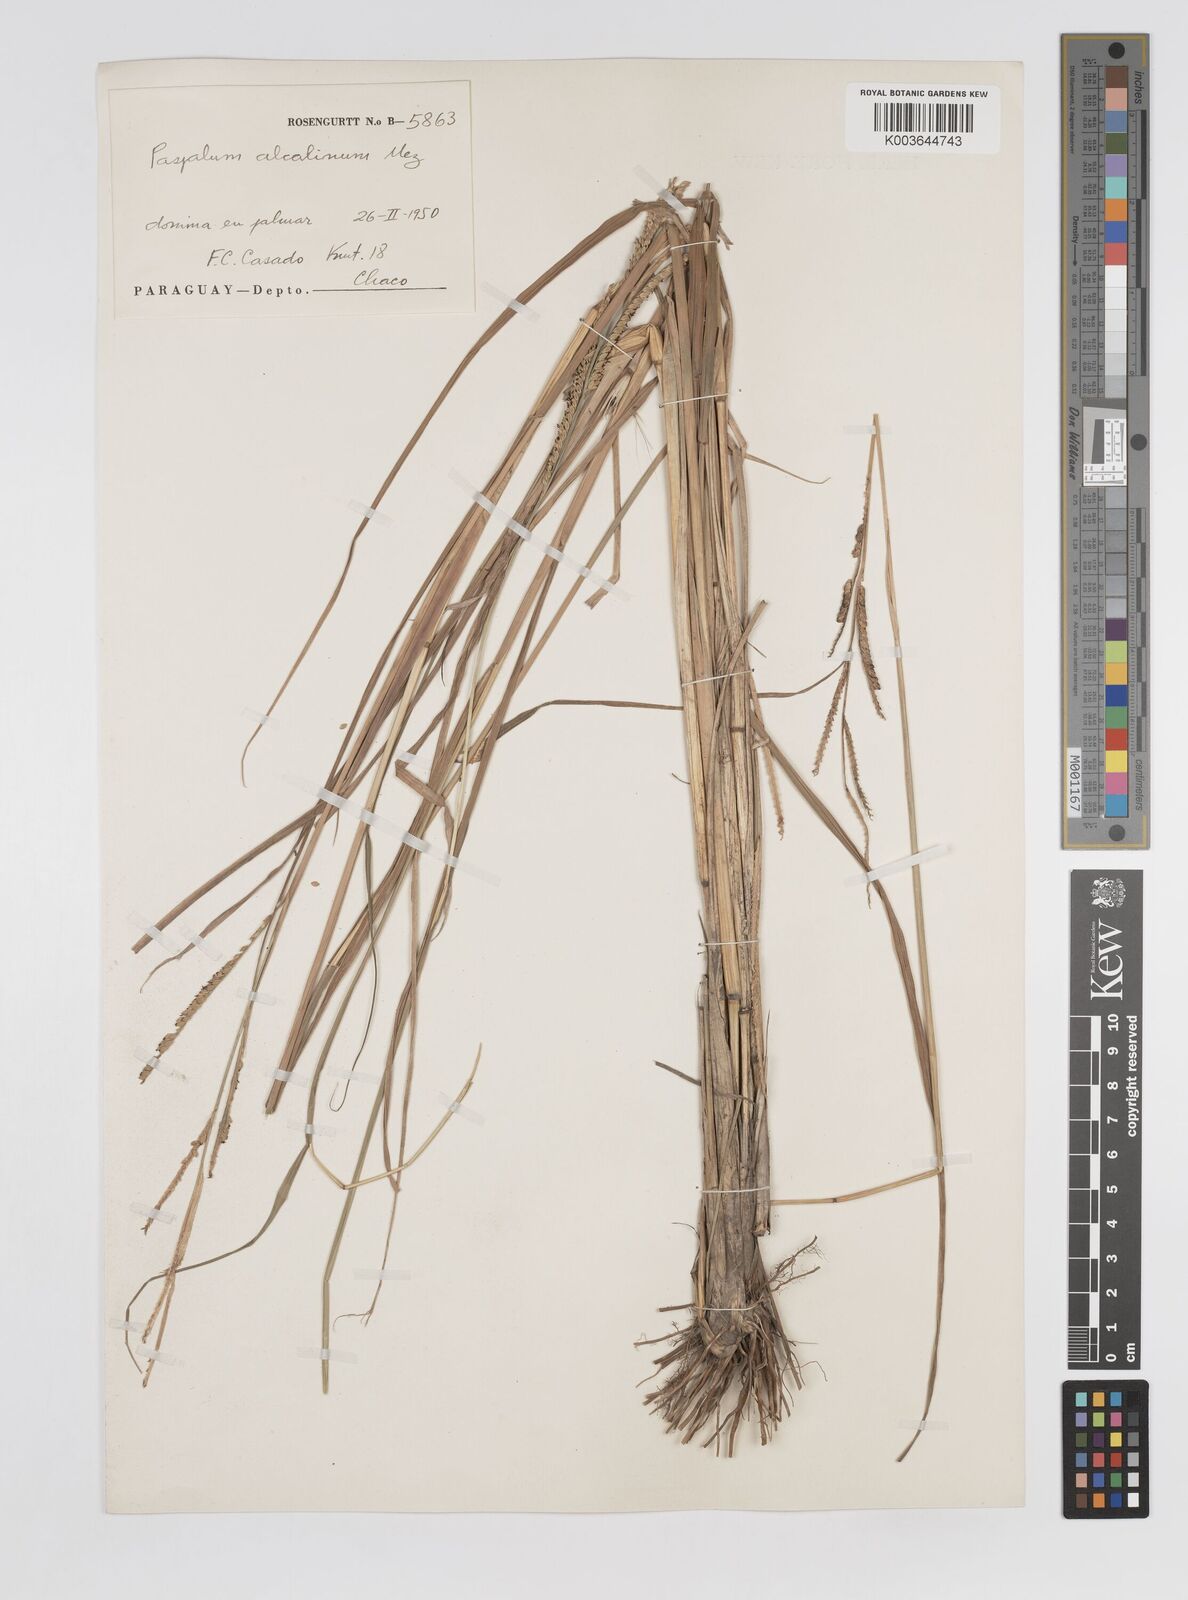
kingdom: Plantae
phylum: Tracheophyta
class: Liliopsida
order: Poales
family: Poaceae
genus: Paspalum
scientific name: Paspalum alcalinum
